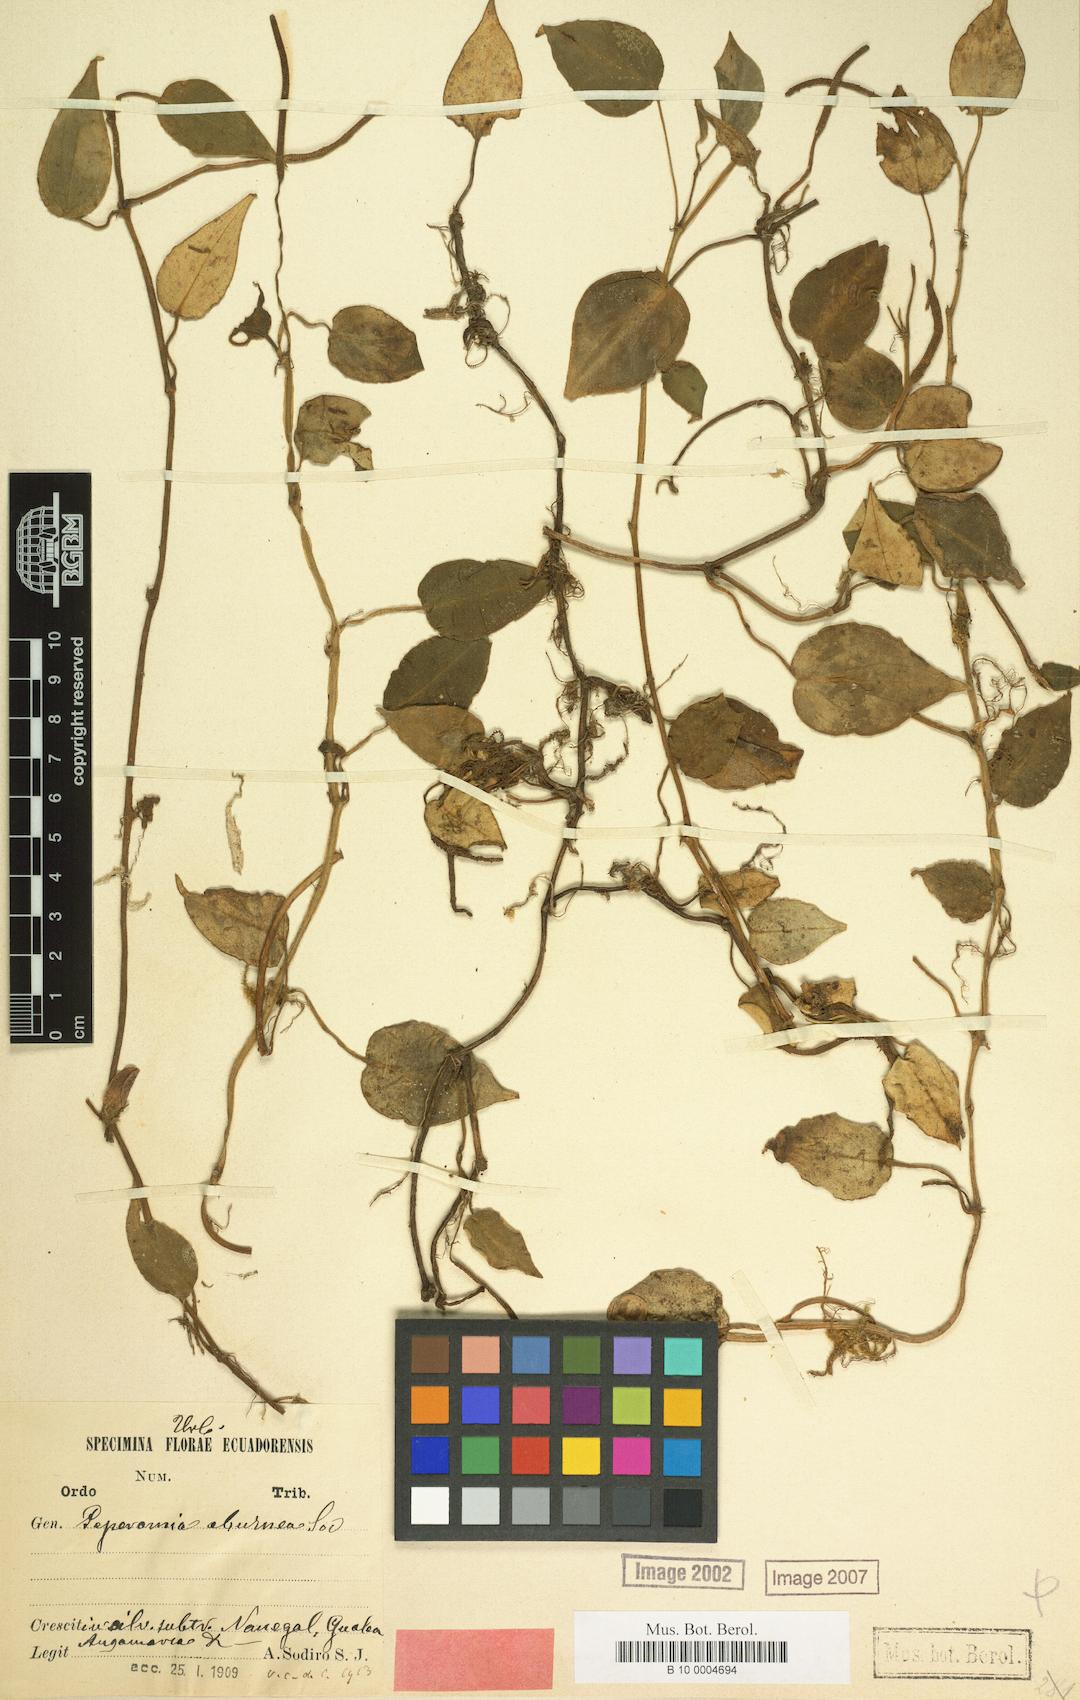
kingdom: Plantae
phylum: Tracheophyta
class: Magnoliopsida
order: Piperales
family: Piperaceae
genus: Peperomia
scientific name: Peperomia eburnea
